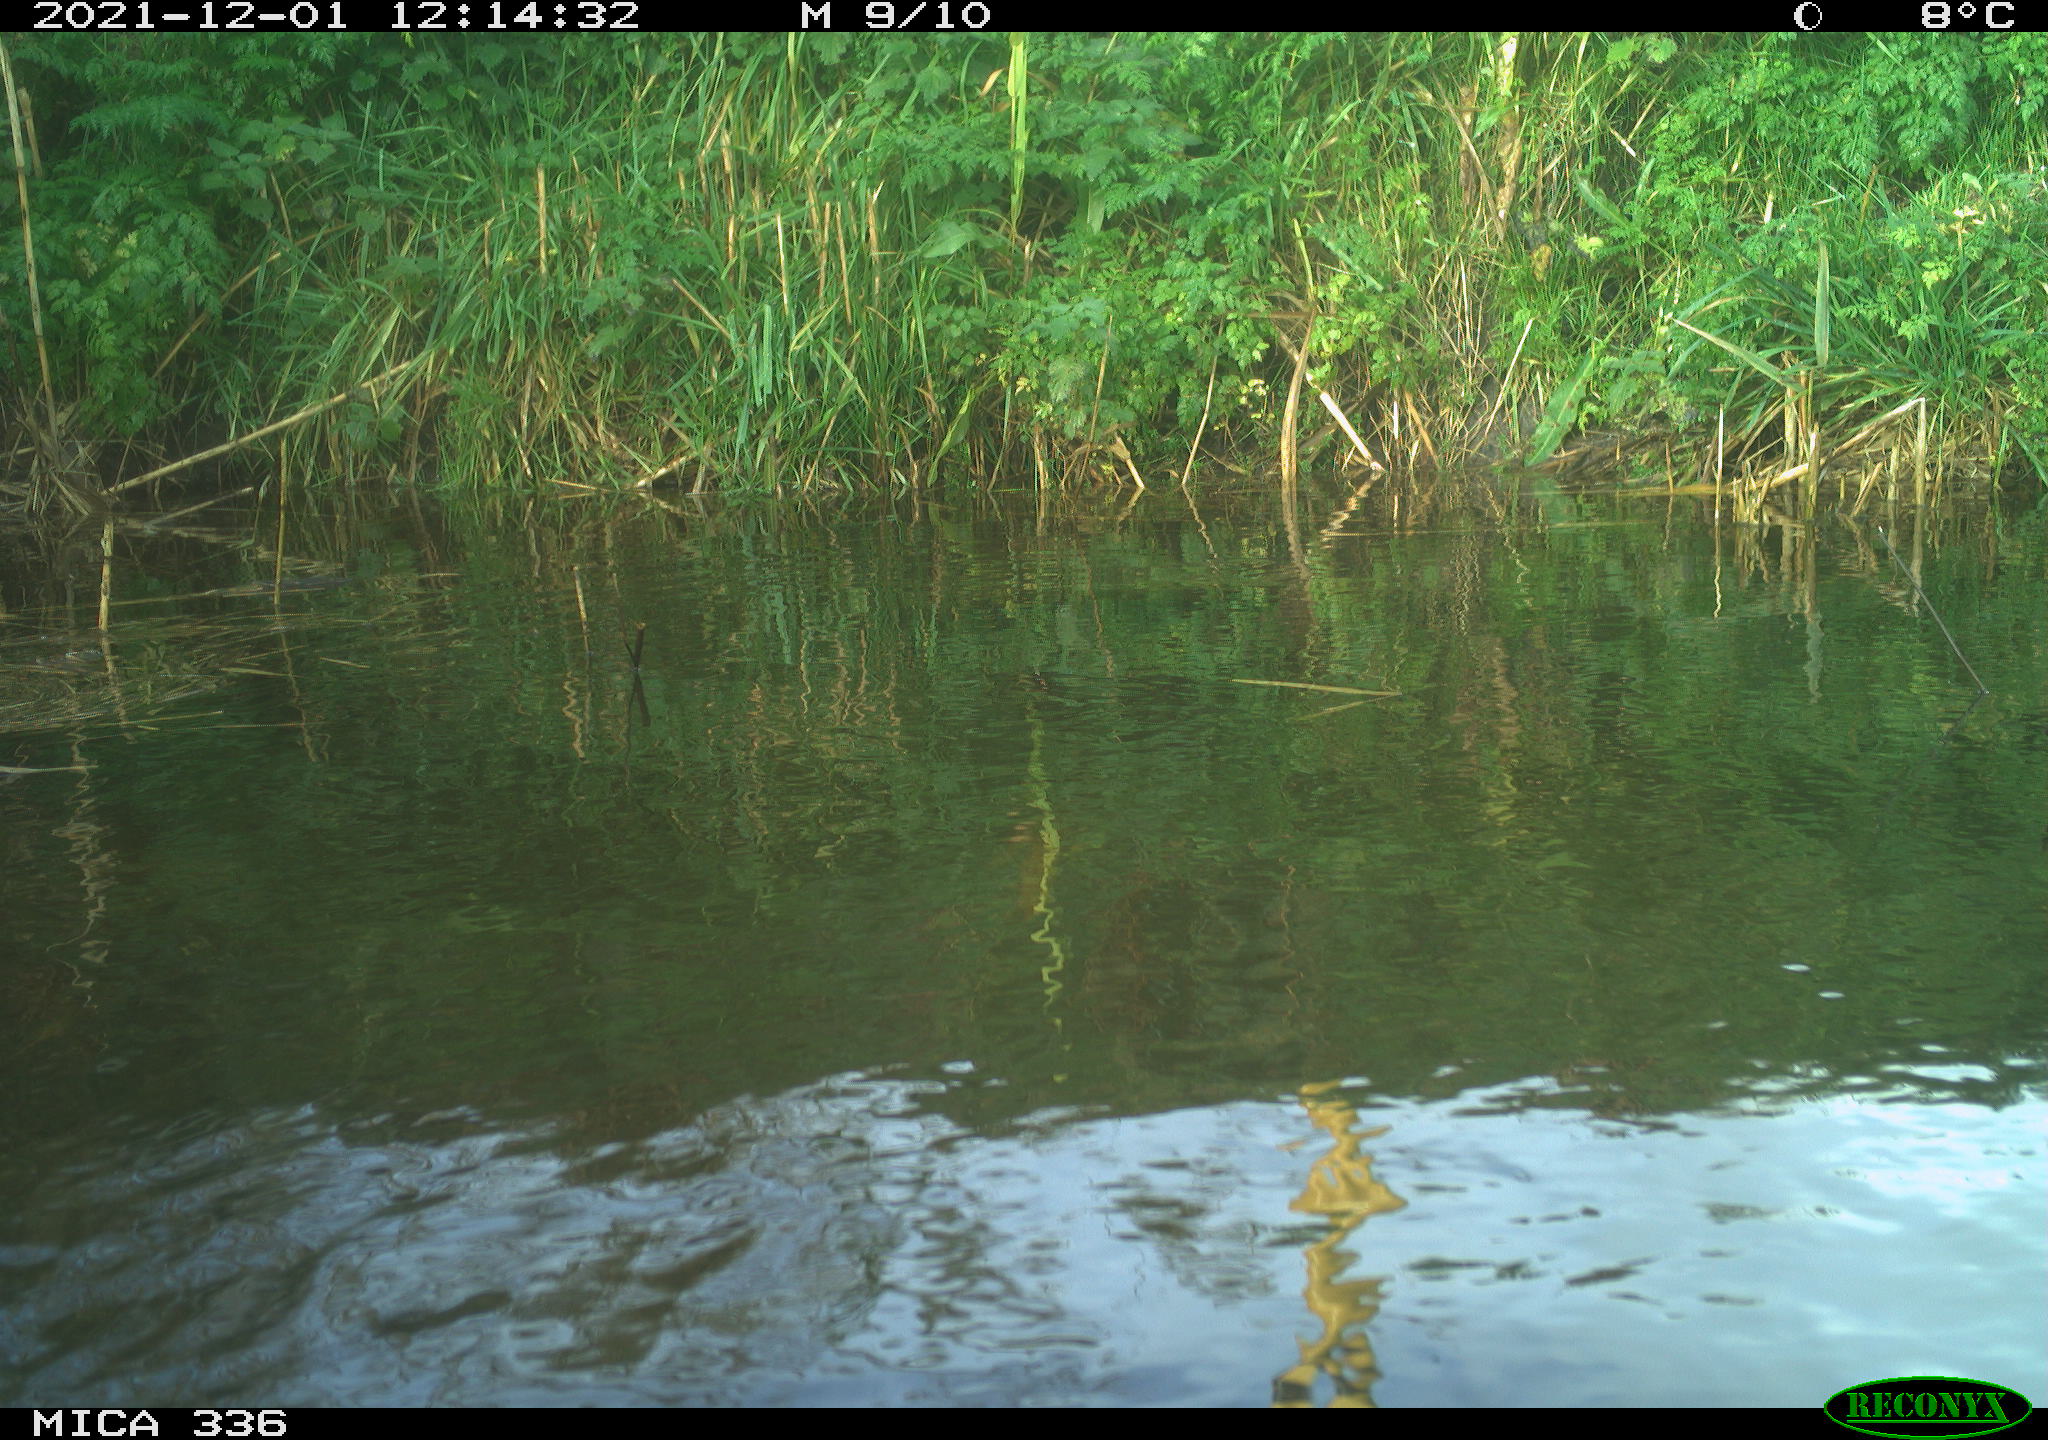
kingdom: Animalia
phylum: Chordata
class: Aves
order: Gruiformes
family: Rallidae
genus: Gallinula
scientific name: Gallinula chloropus
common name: Common moorhen
